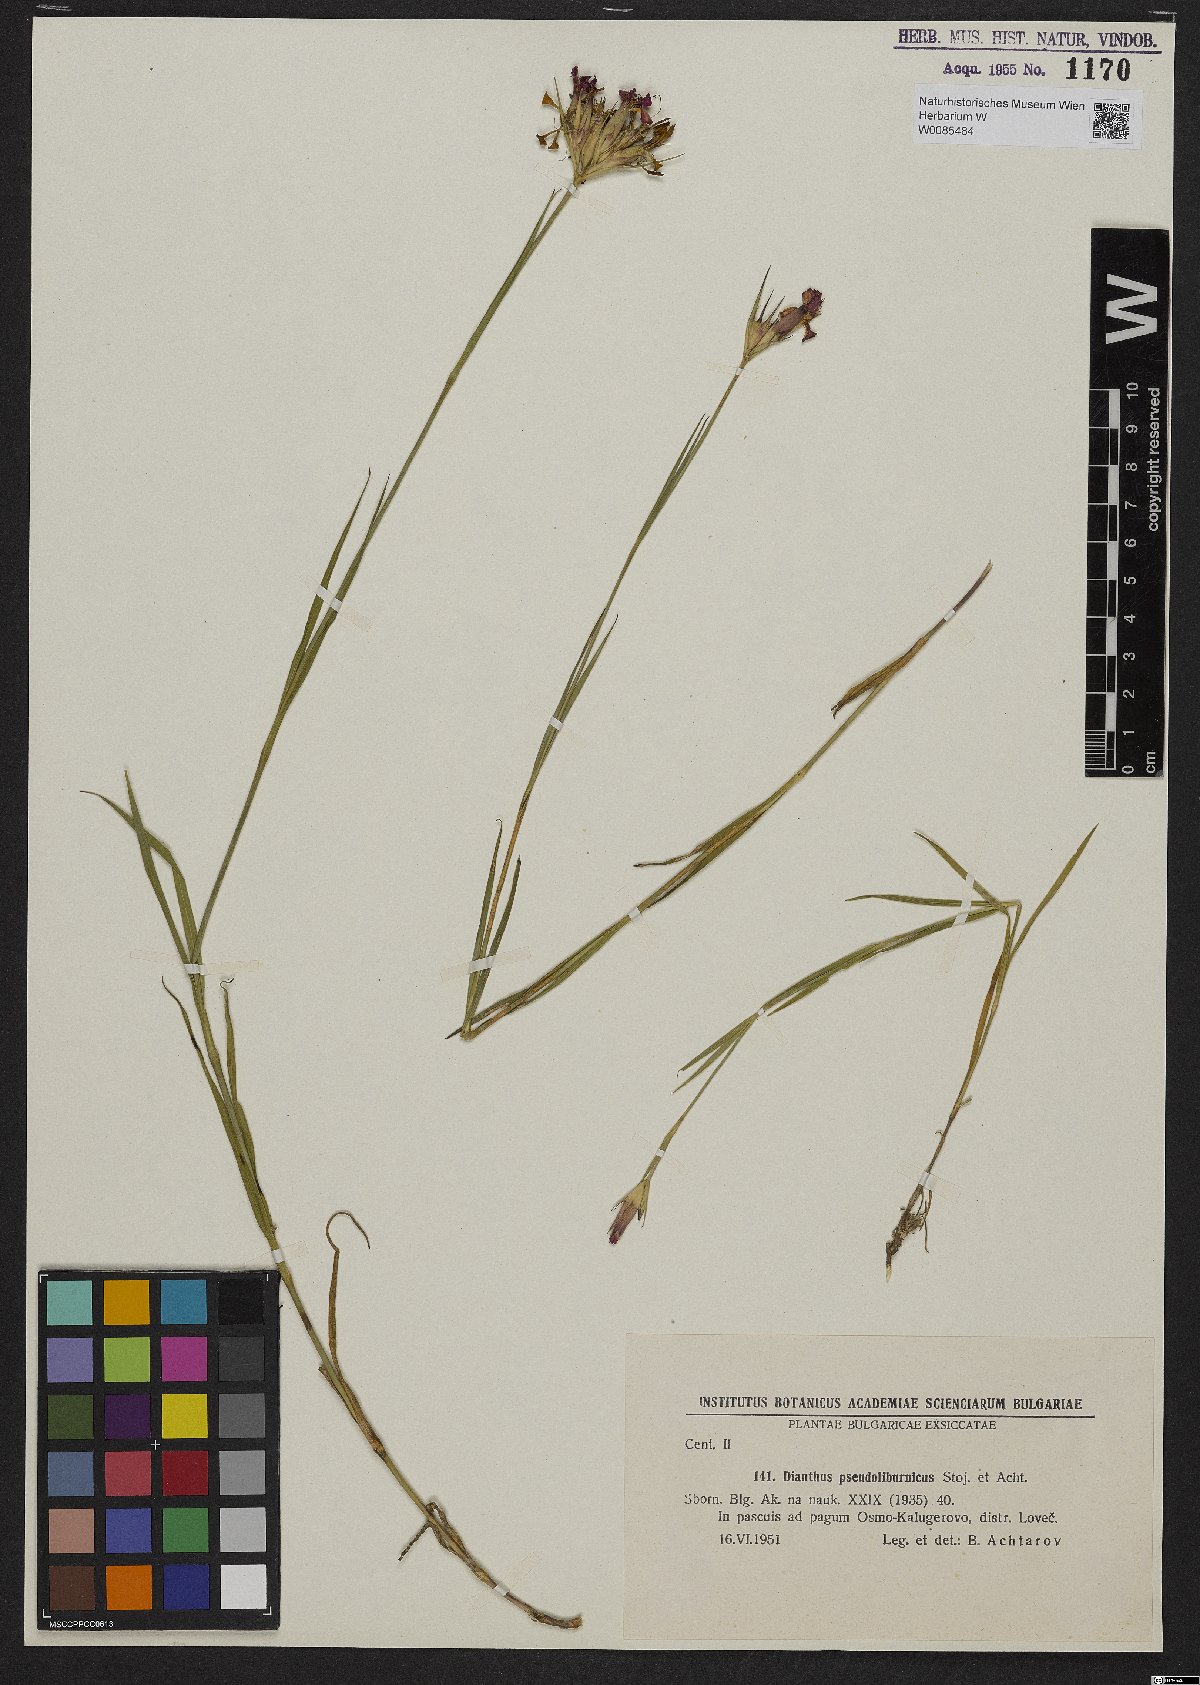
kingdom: Plantae
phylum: Tracheophyta
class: Magnoliopsida
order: Caryophyllales
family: Caryophyllaceae
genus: Dianthus
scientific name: Dianthus
